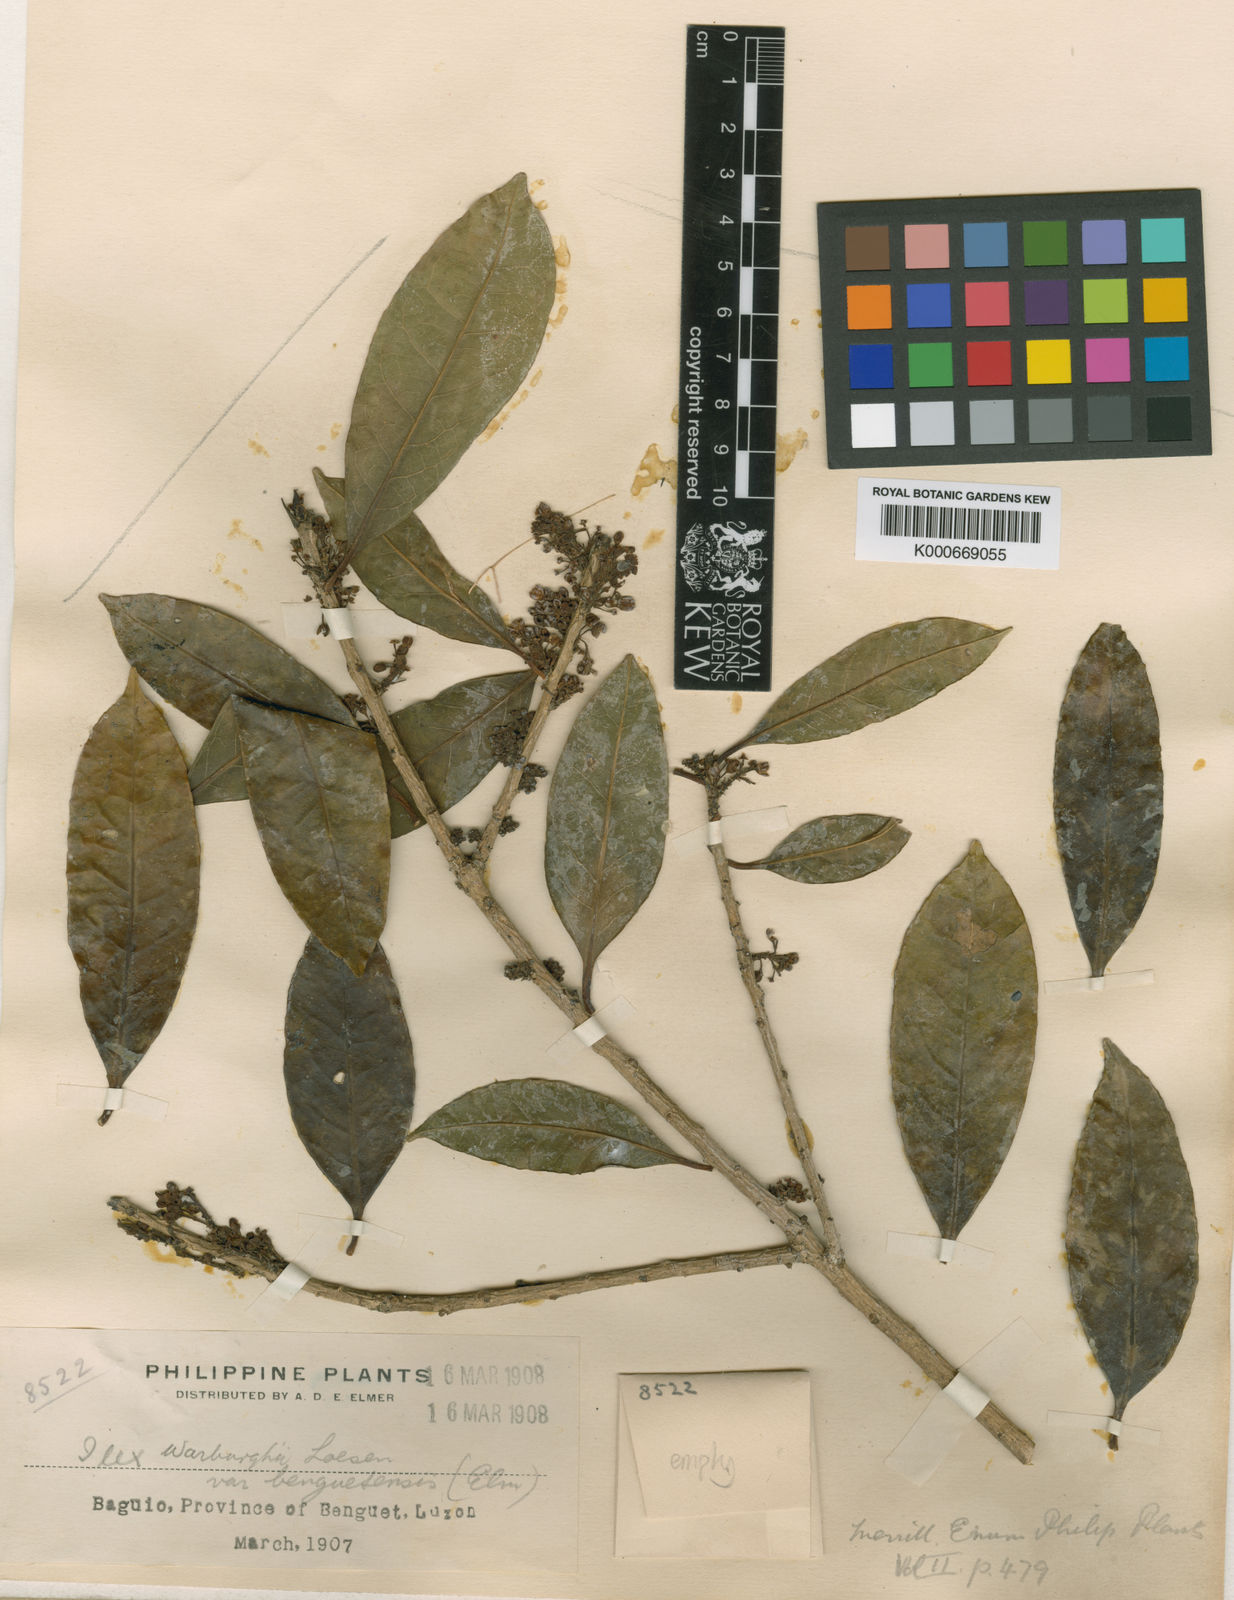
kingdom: Plantae
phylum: Tracheophyta
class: Magnoliopsida
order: Aquifoliales
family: Aquifoliaceae
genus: Ilex
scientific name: Ilex warburgii
